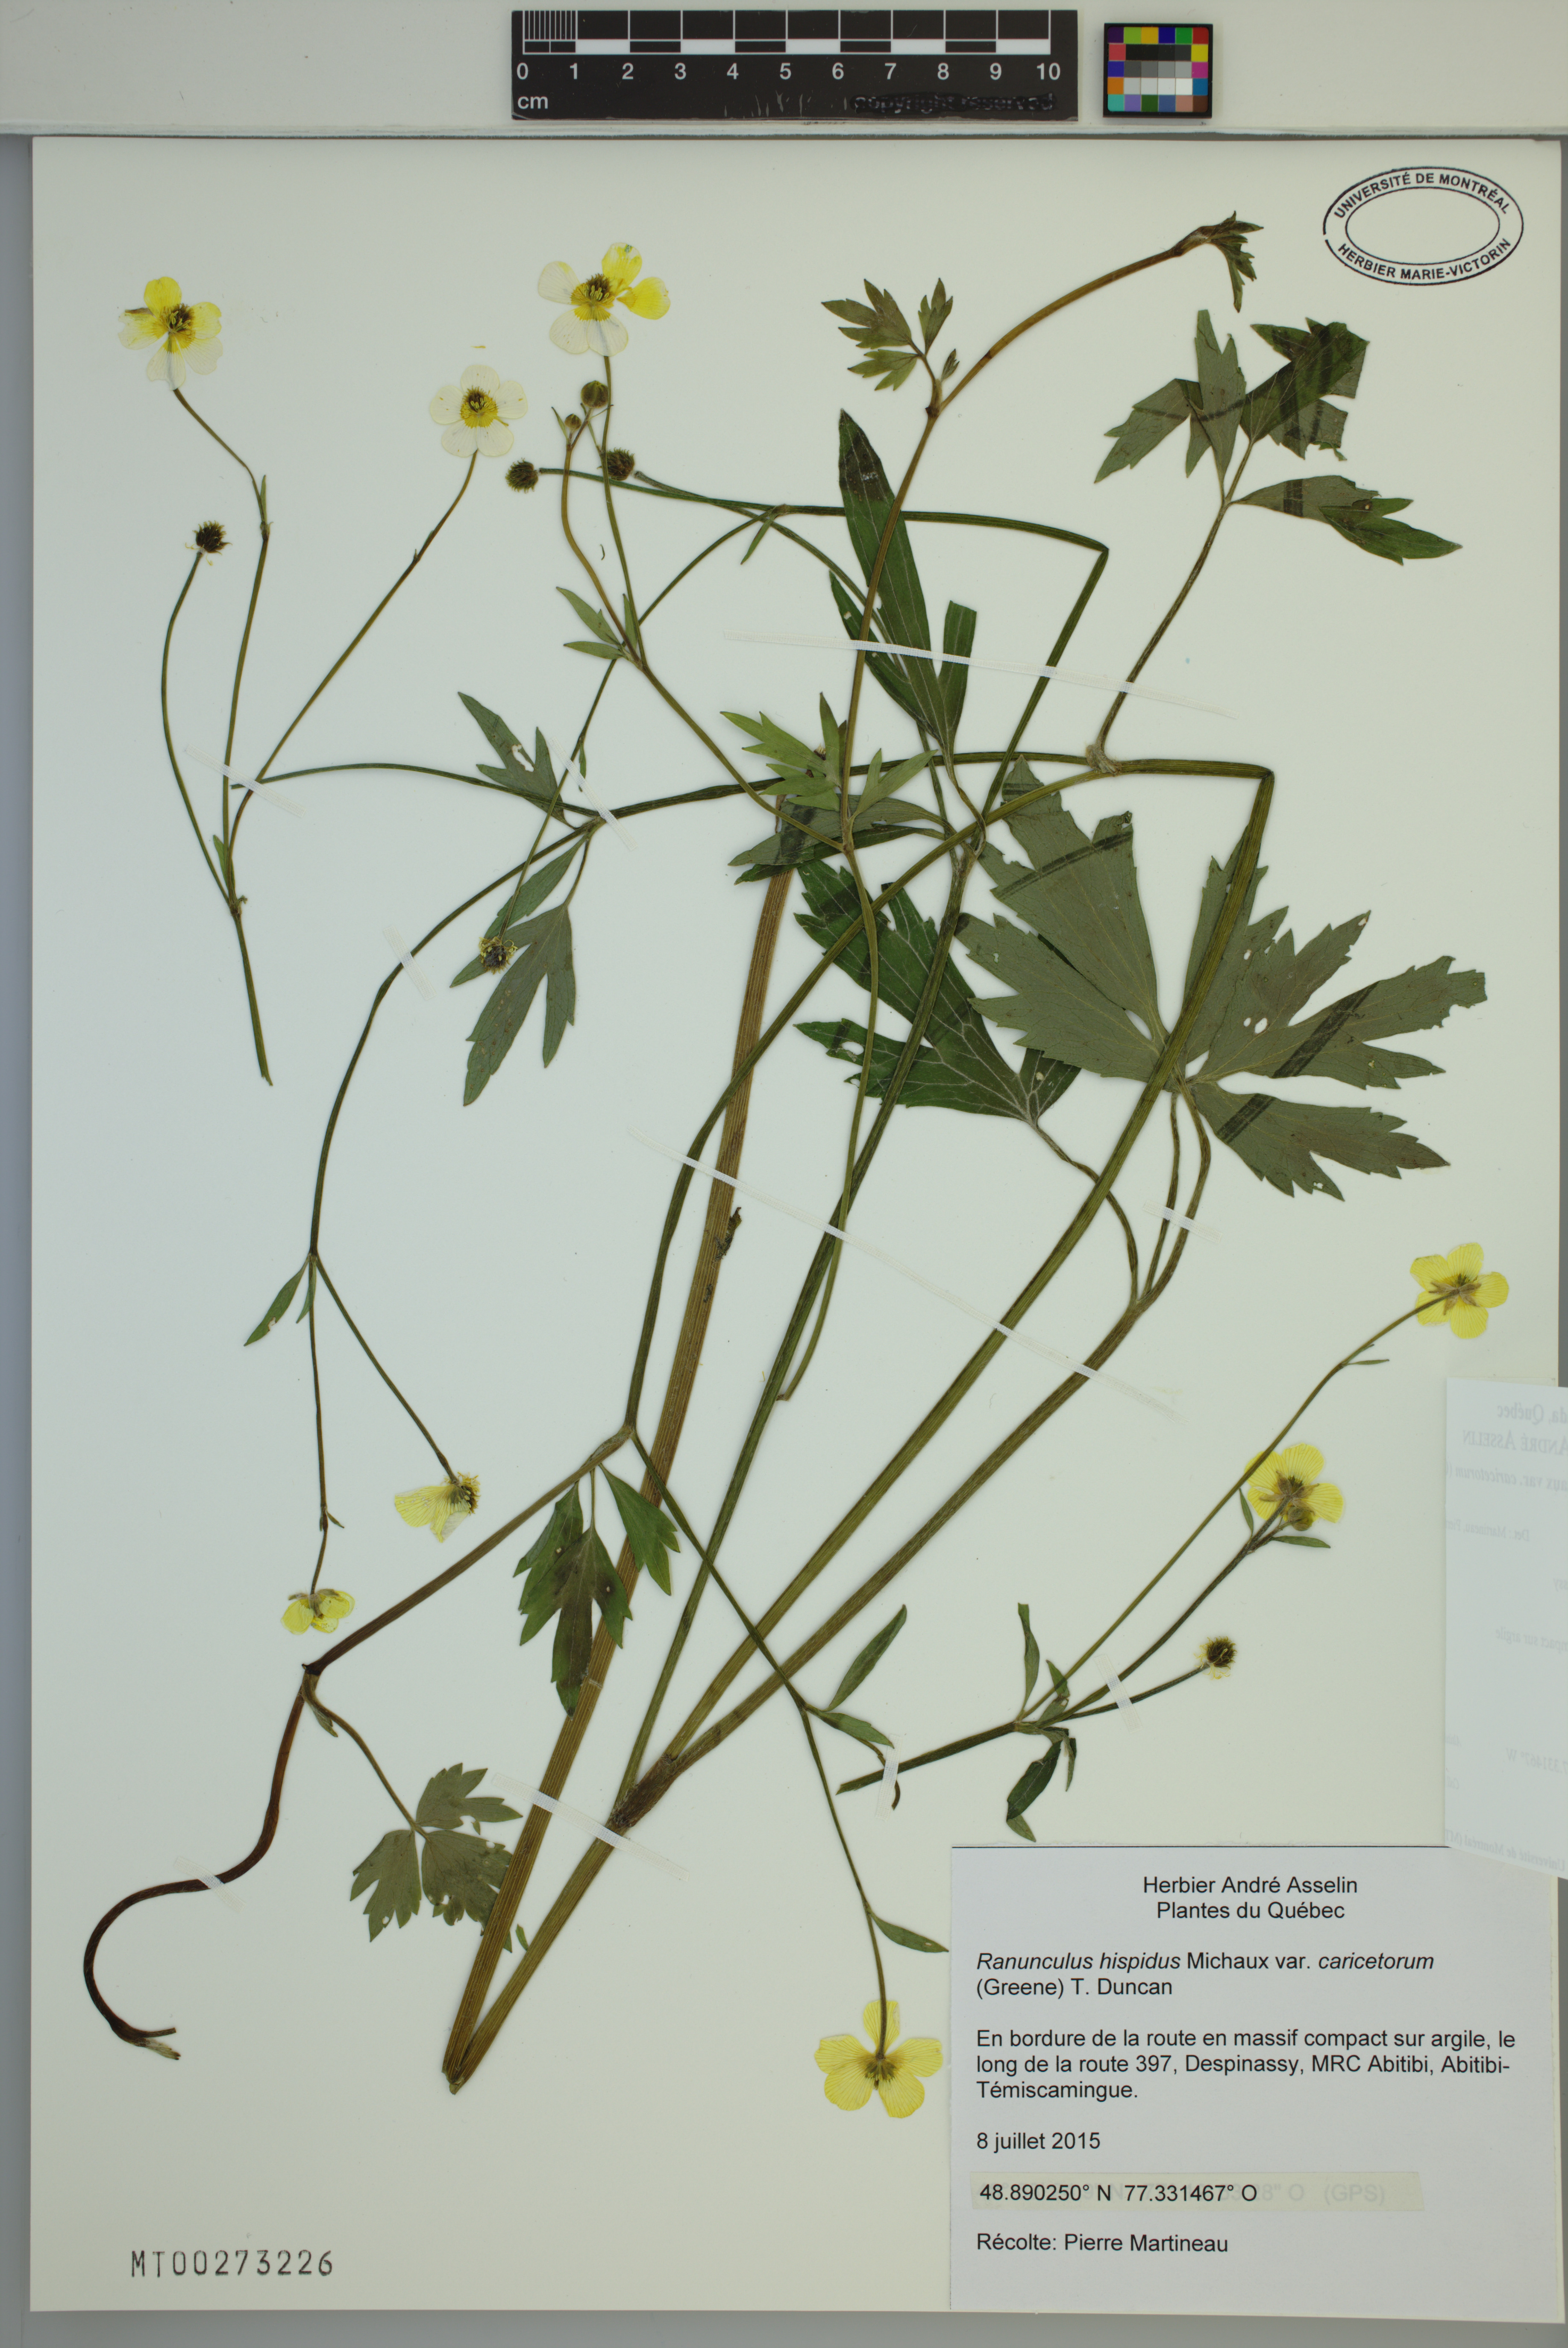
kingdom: Plantae
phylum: Tracheophyta
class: Magnoliopsida
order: Ranunculales
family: Ranunculaceae
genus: Ranunculus
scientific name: Ranunculus hispidus
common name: Bristly buttercup
